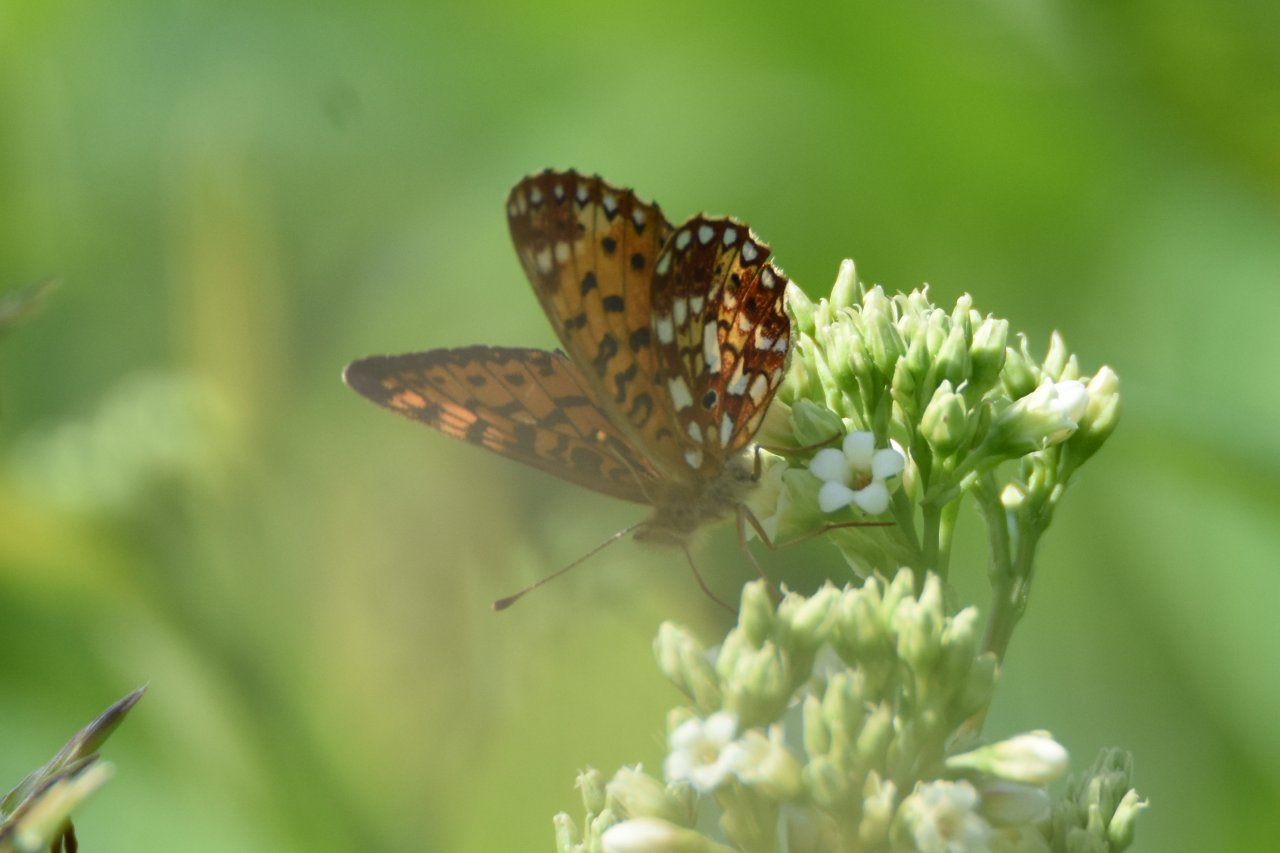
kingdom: Animalia
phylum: Arthropoda
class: Insecta
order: Lepidoptera
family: Nymphalidae
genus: Boloria
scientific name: Boloria selene
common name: Silver-bordered Fritillary
